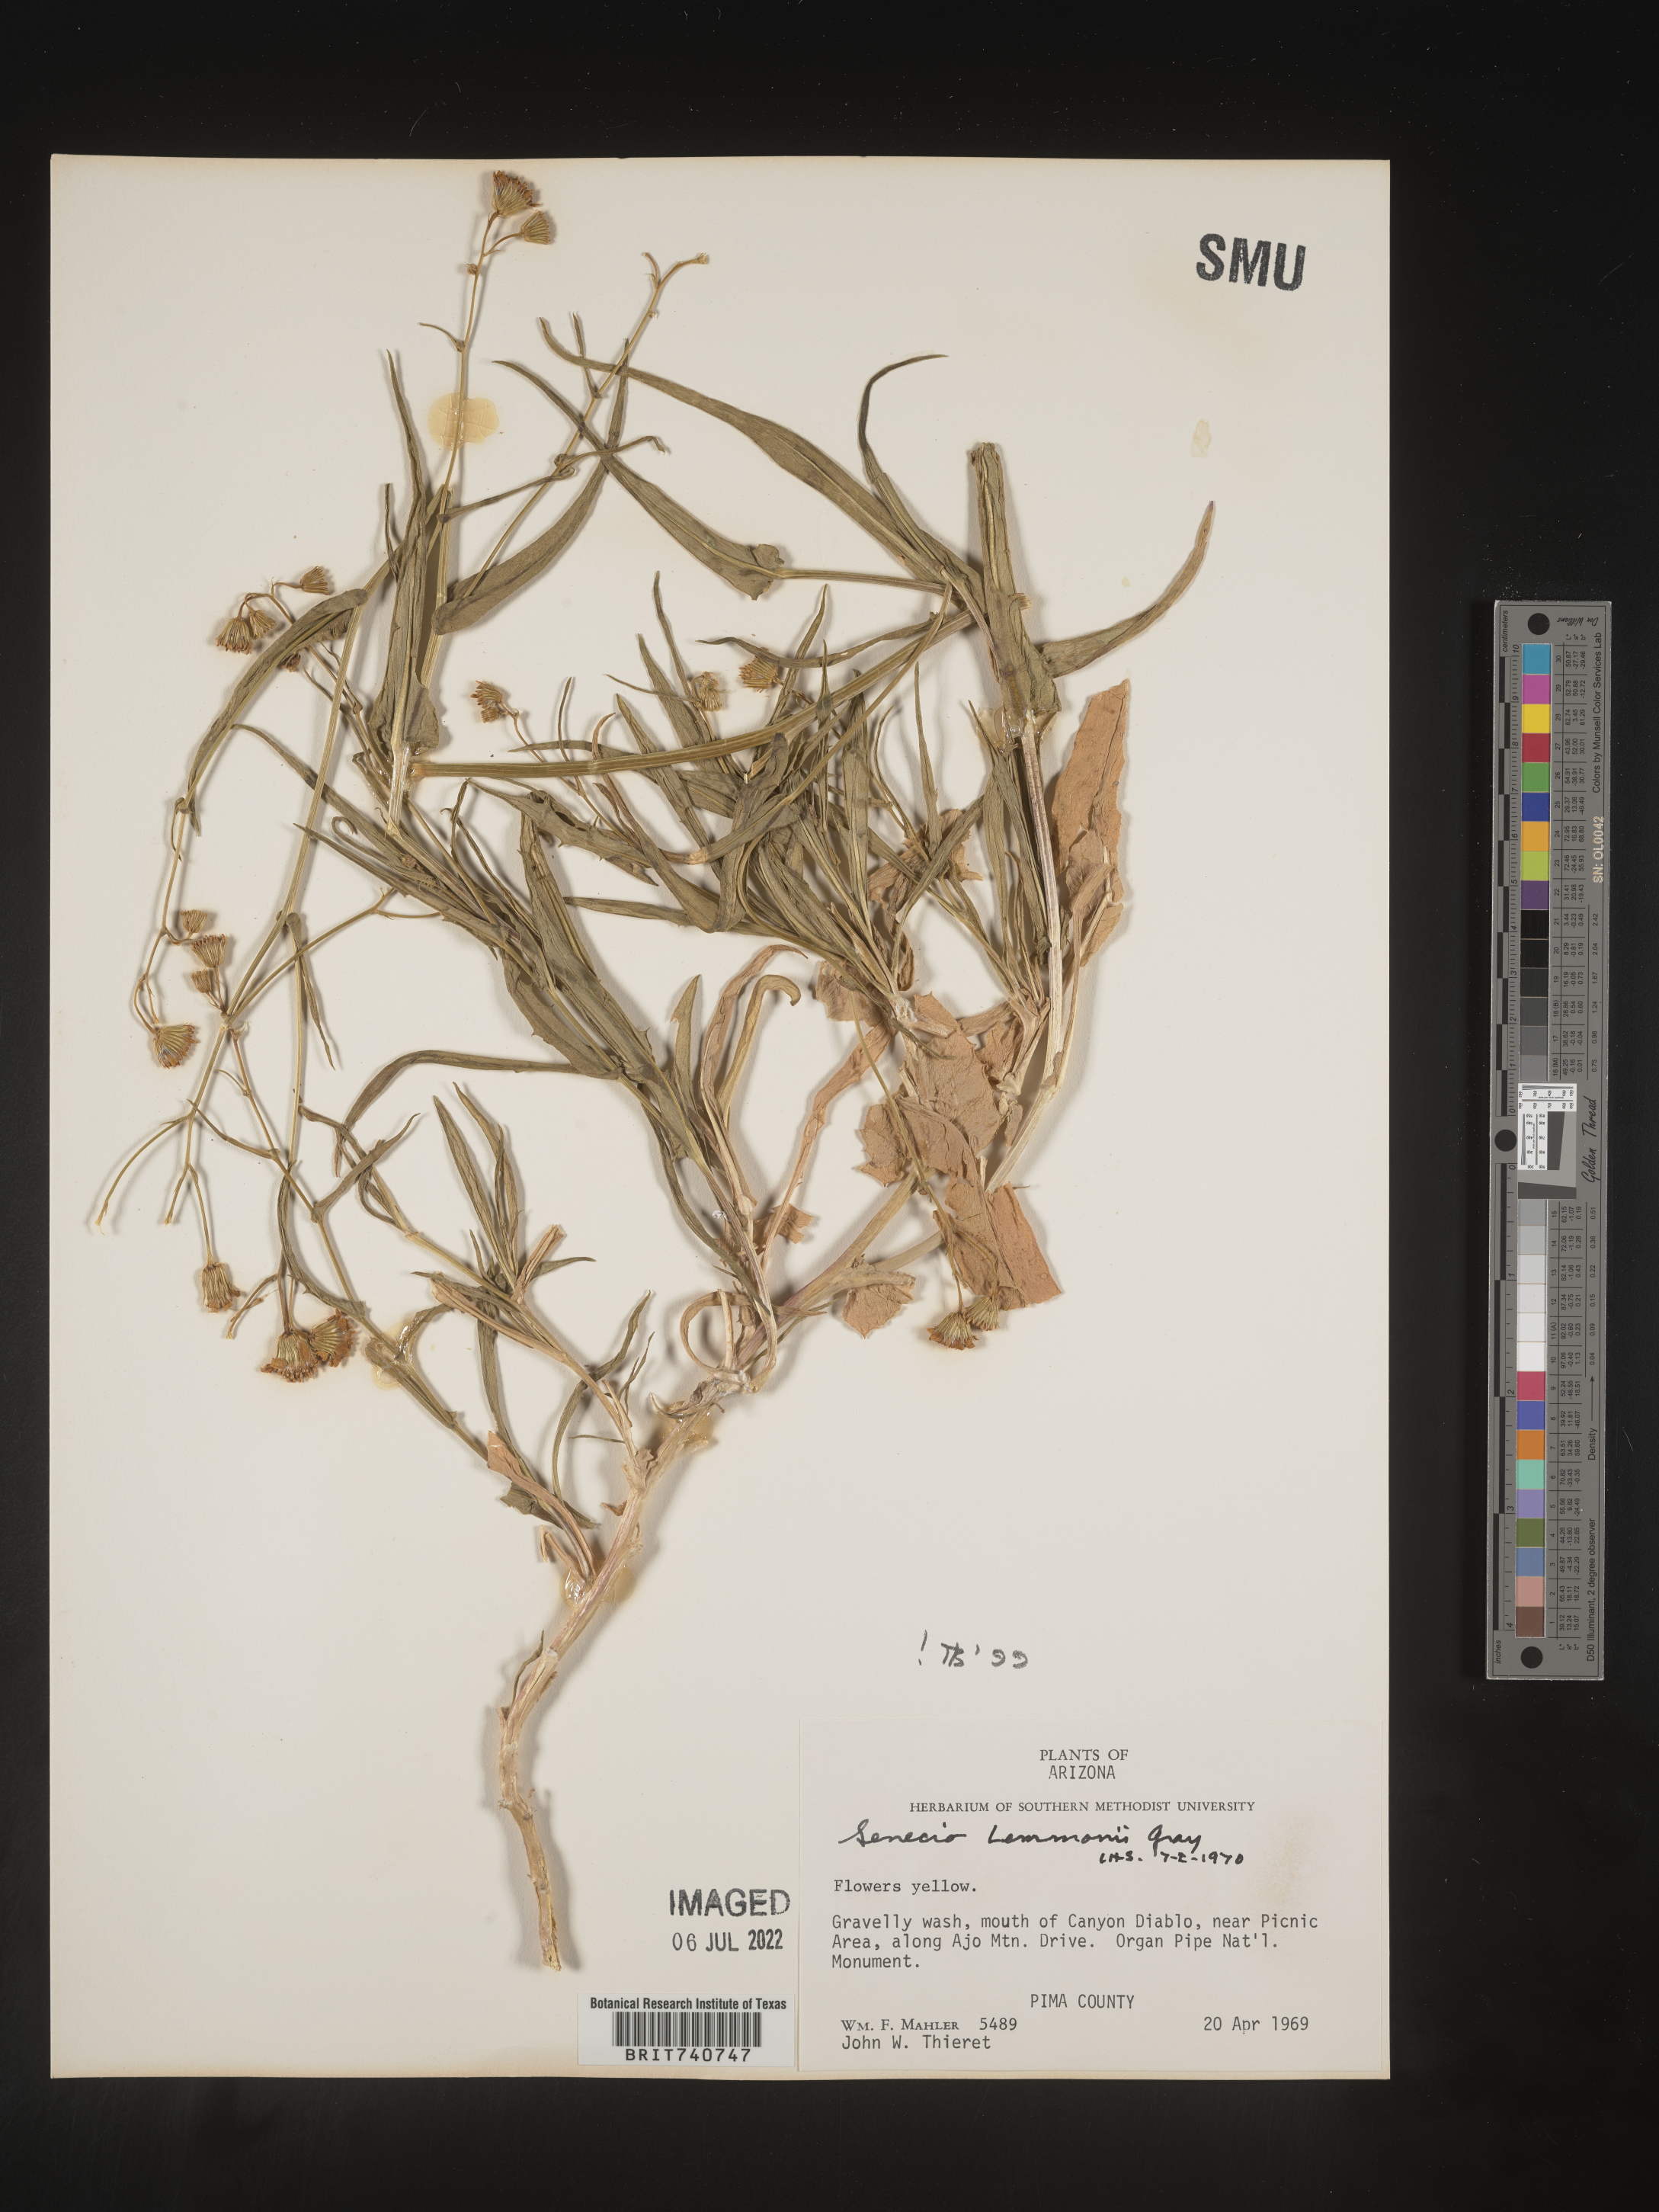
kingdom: Plantae
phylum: Tracheophyta
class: Magnoliopsida
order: Asterales
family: Asteraceae
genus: Senecio
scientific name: Senecio lemmonii
